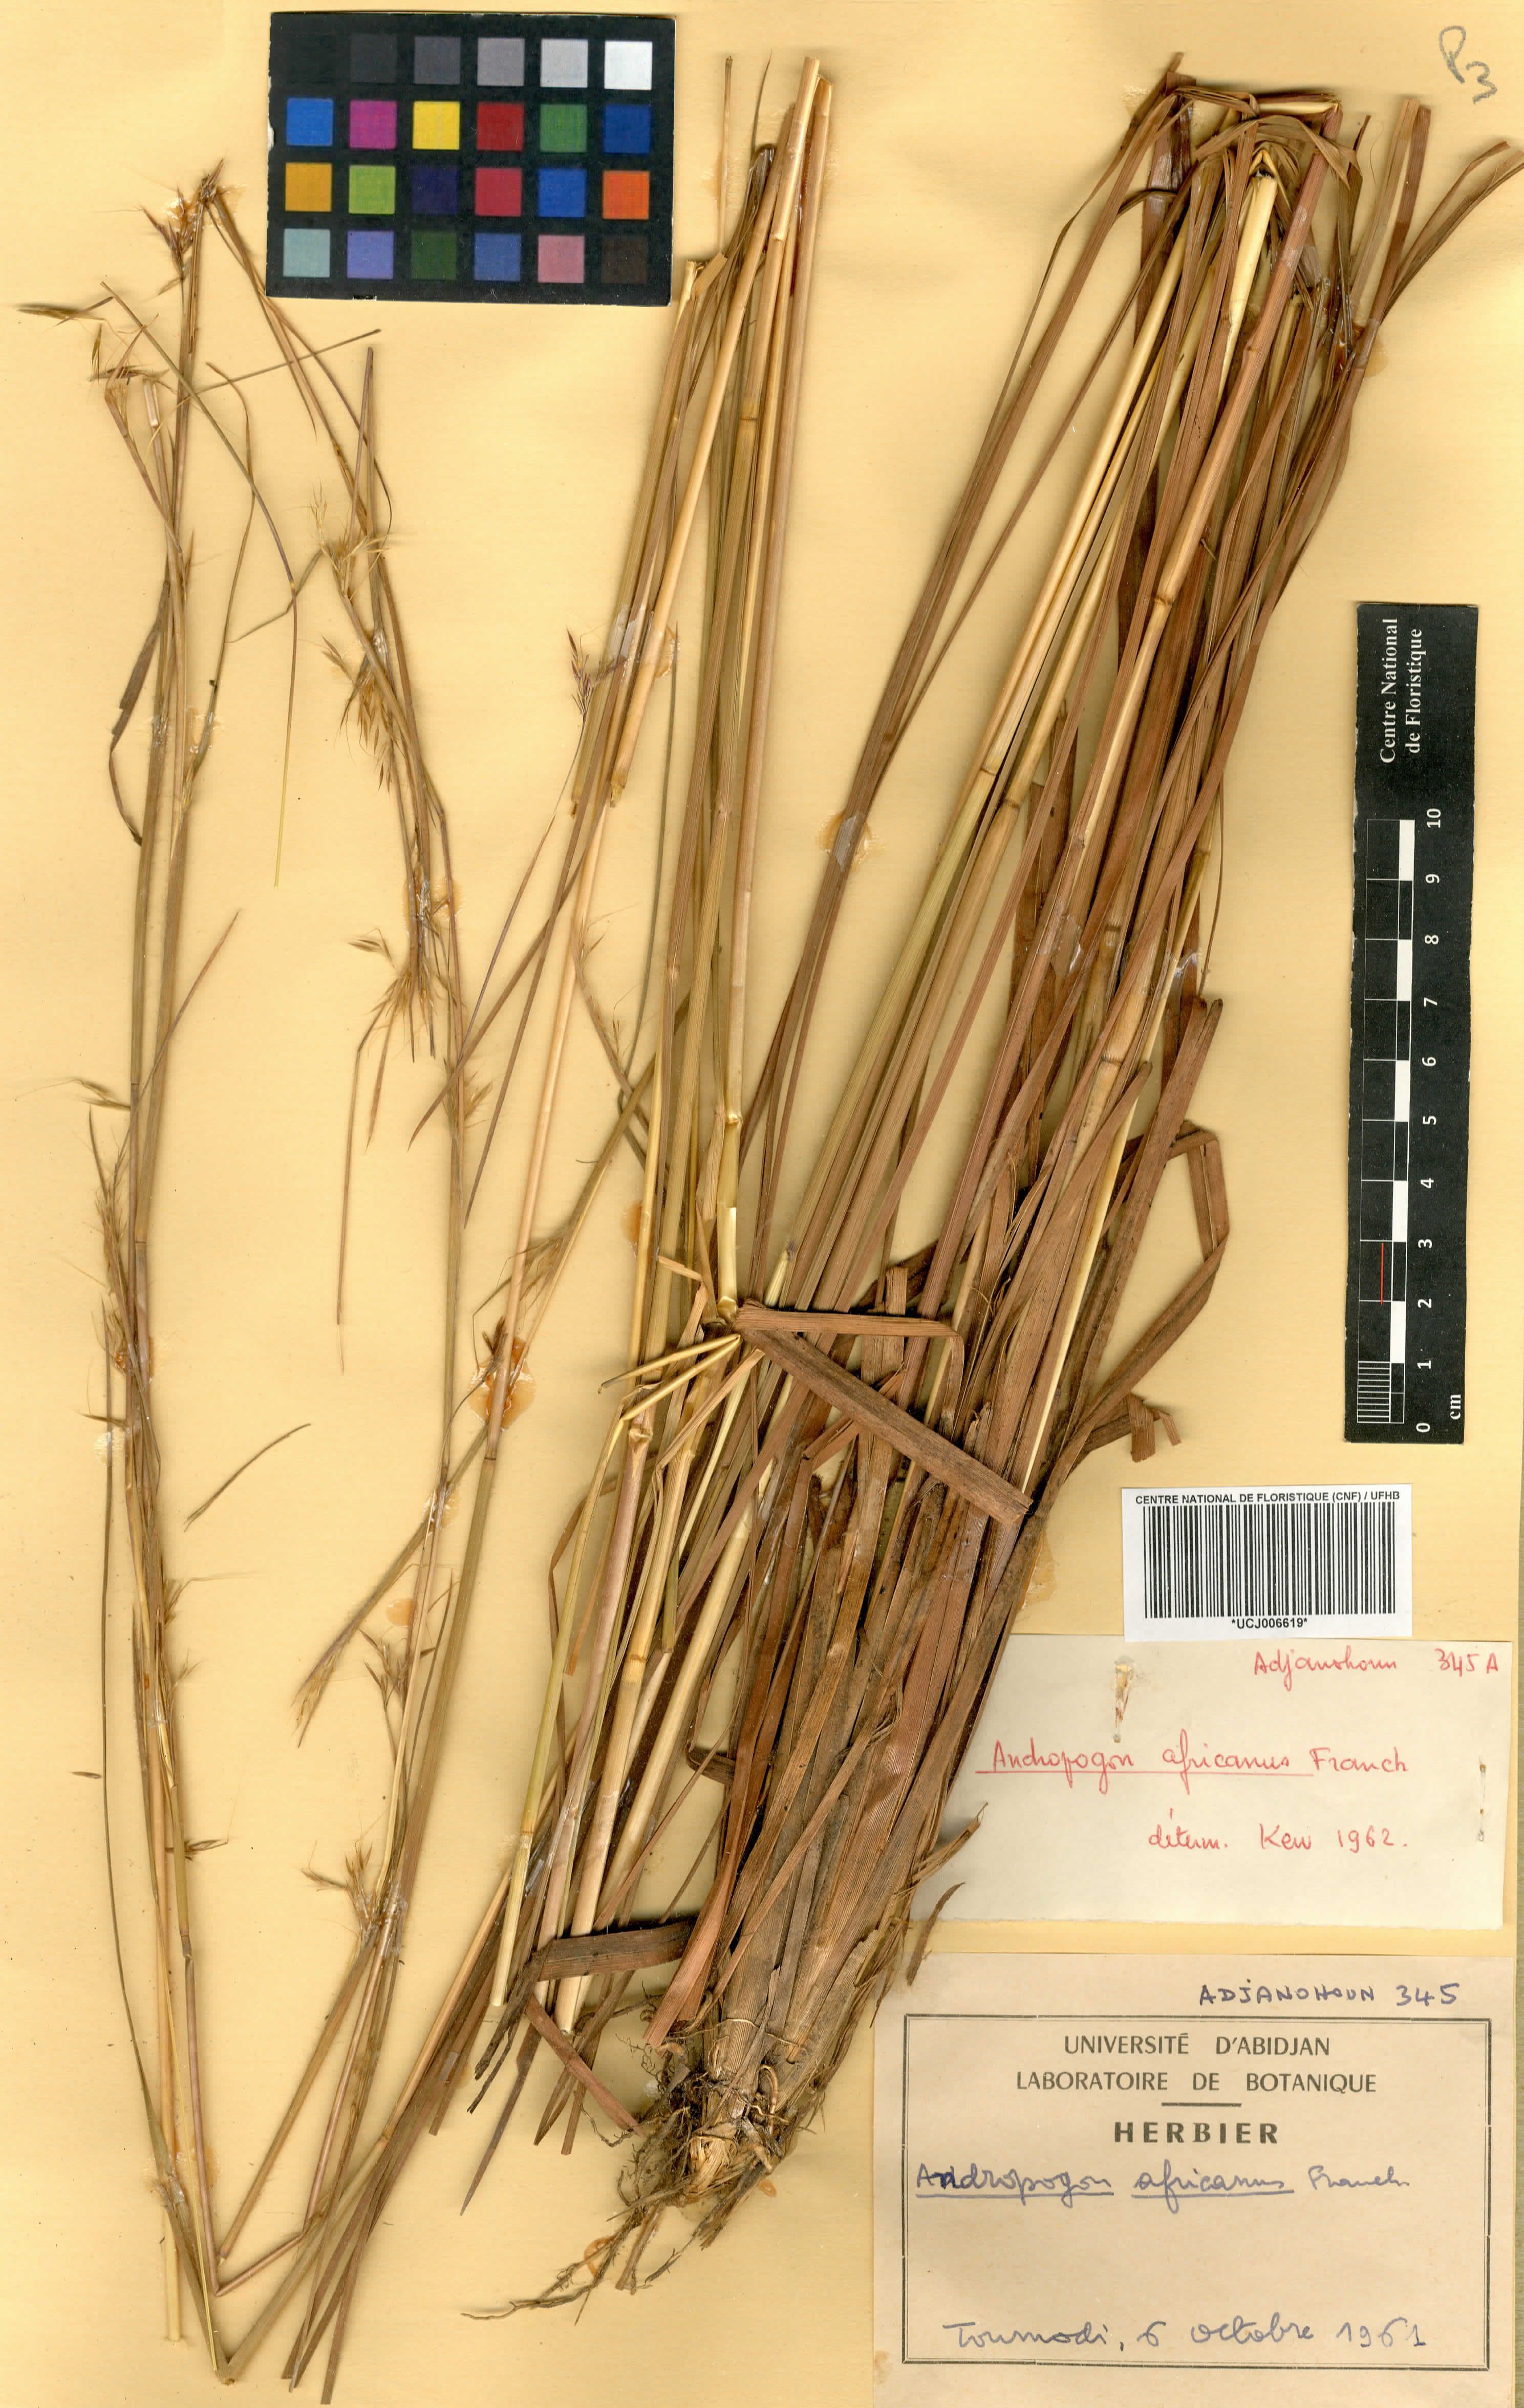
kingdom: Plantae
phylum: Tracheophyta
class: Liliopsida
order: Poales
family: Poaceae
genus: Andropogon
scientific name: Andropogon africanus
